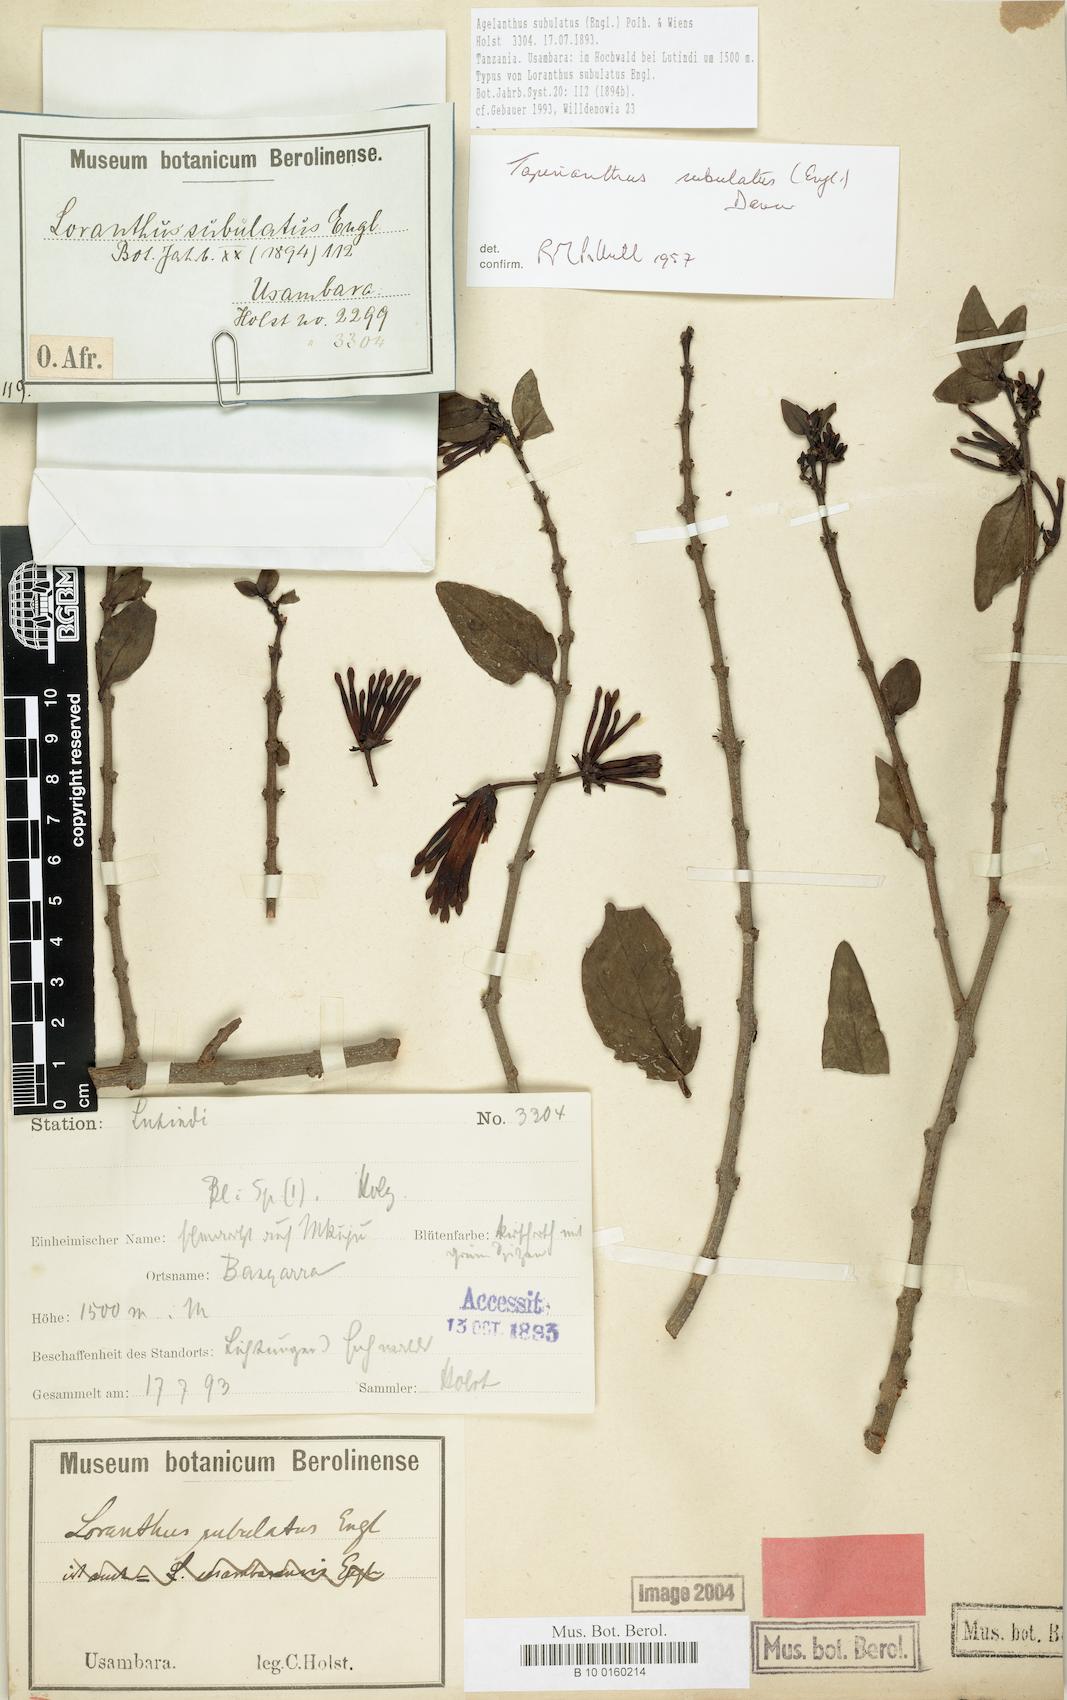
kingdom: Plantae
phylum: Tracheophyta
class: Magnoliopsida
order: Santalales
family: Loranthaceae
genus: Agelanthus
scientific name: Agelanthus subulatus
